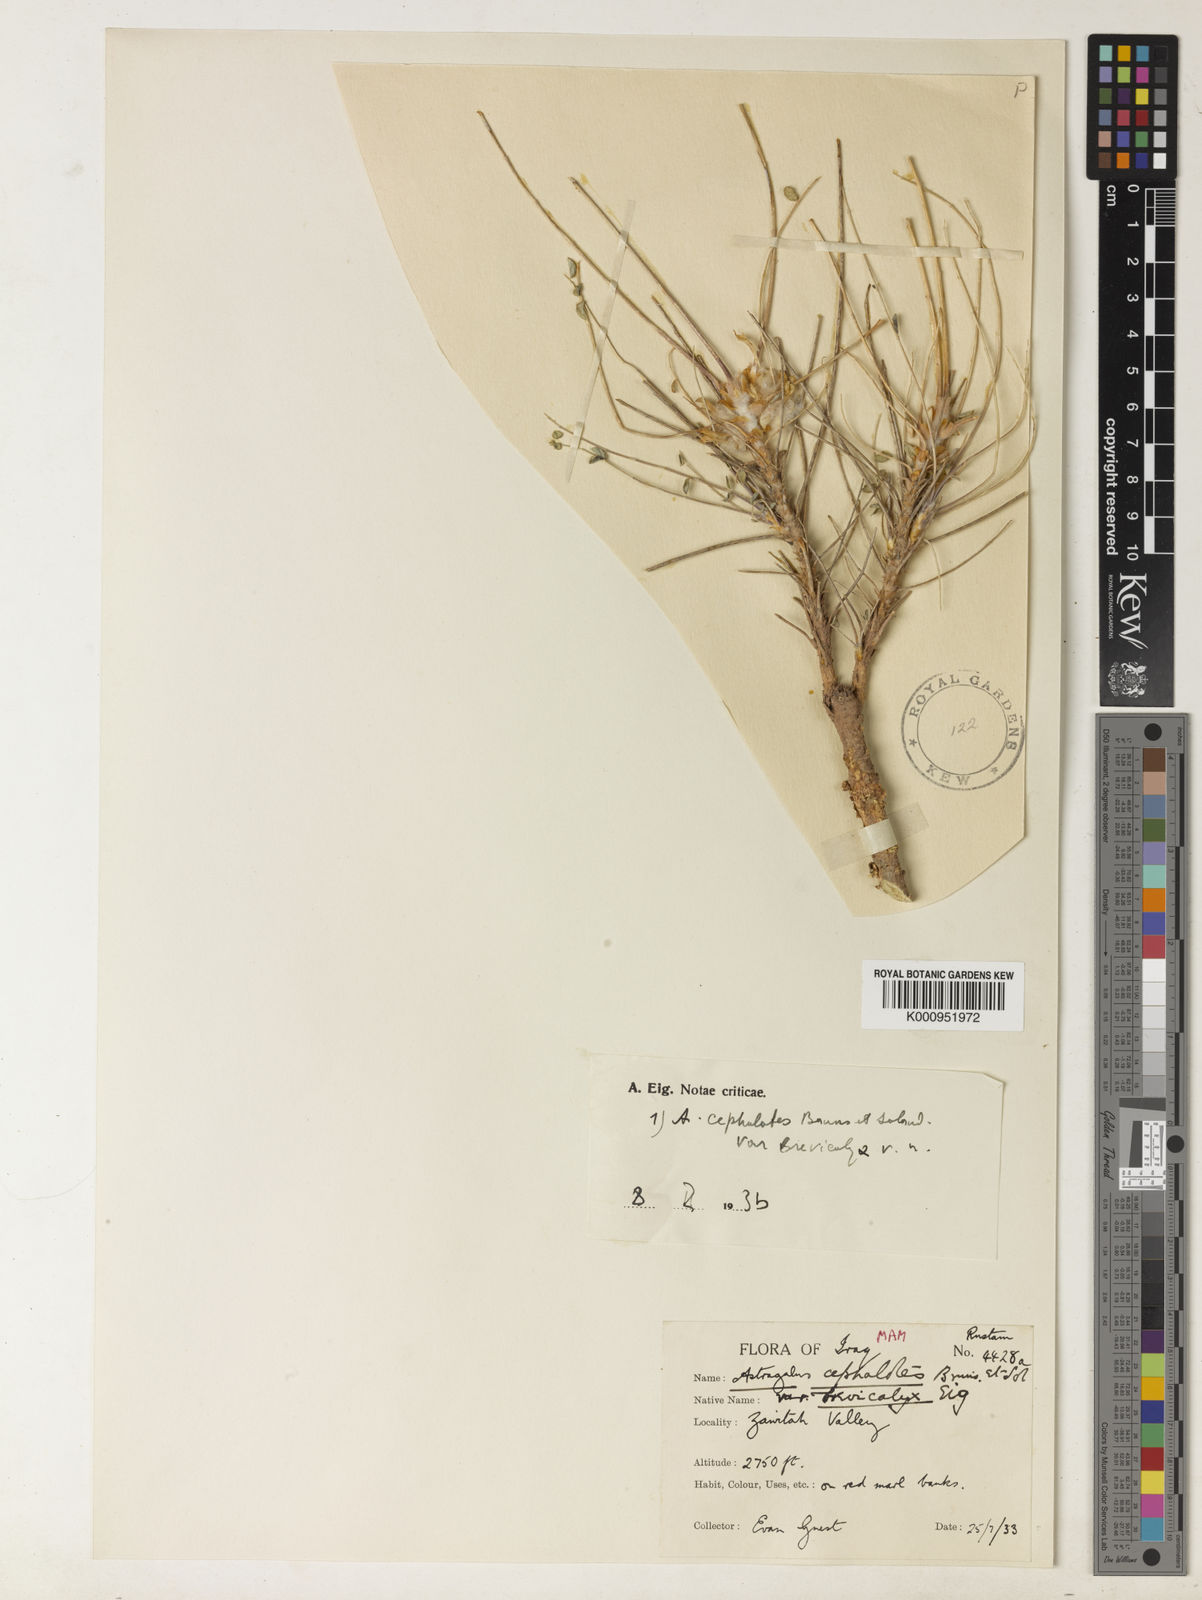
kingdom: Plantae
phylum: Tracheophyta
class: Magnoliopsida
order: Fabales
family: Fabaceae
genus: Astragalus
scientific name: Astragalus cephalotes
